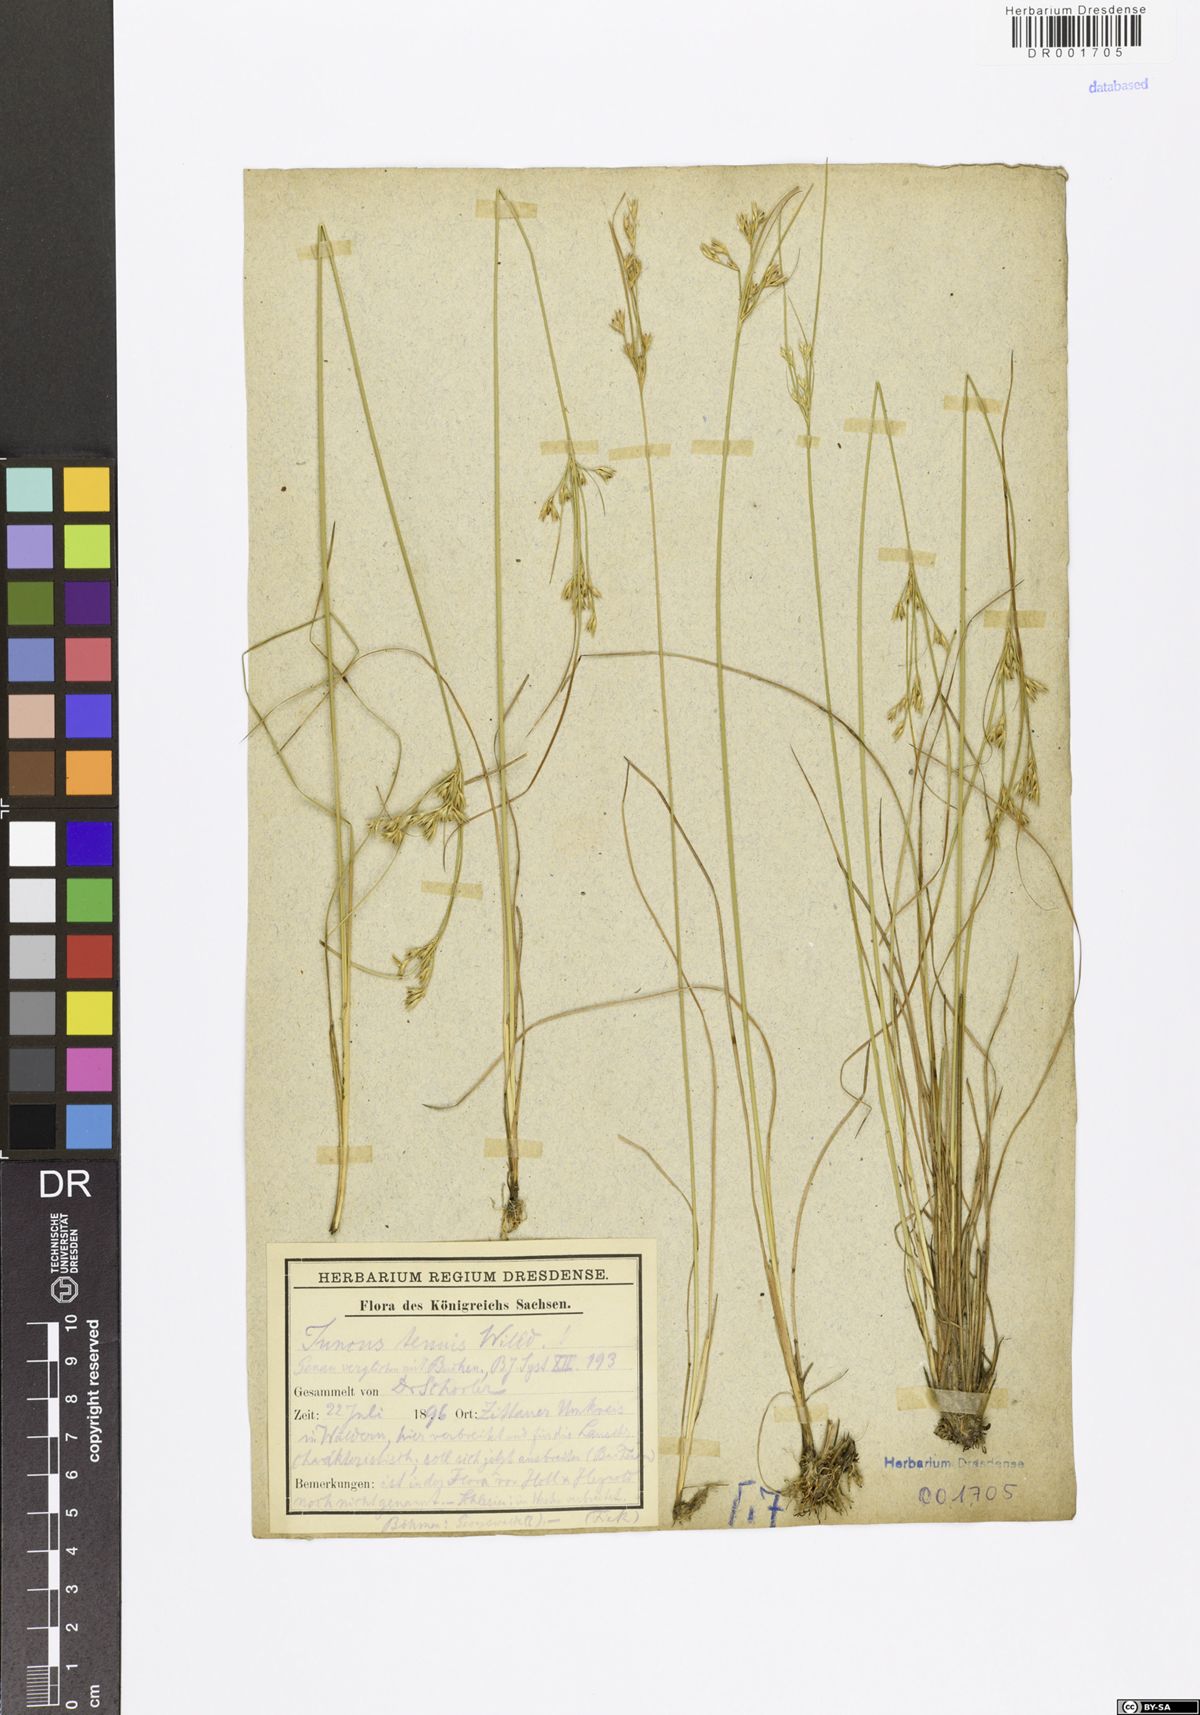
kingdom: Plantae
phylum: Tracheophyta
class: Liliopsida
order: Poales
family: Juncaceae
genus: Juncus
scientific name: Juncus tenuis
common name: Slender rush
